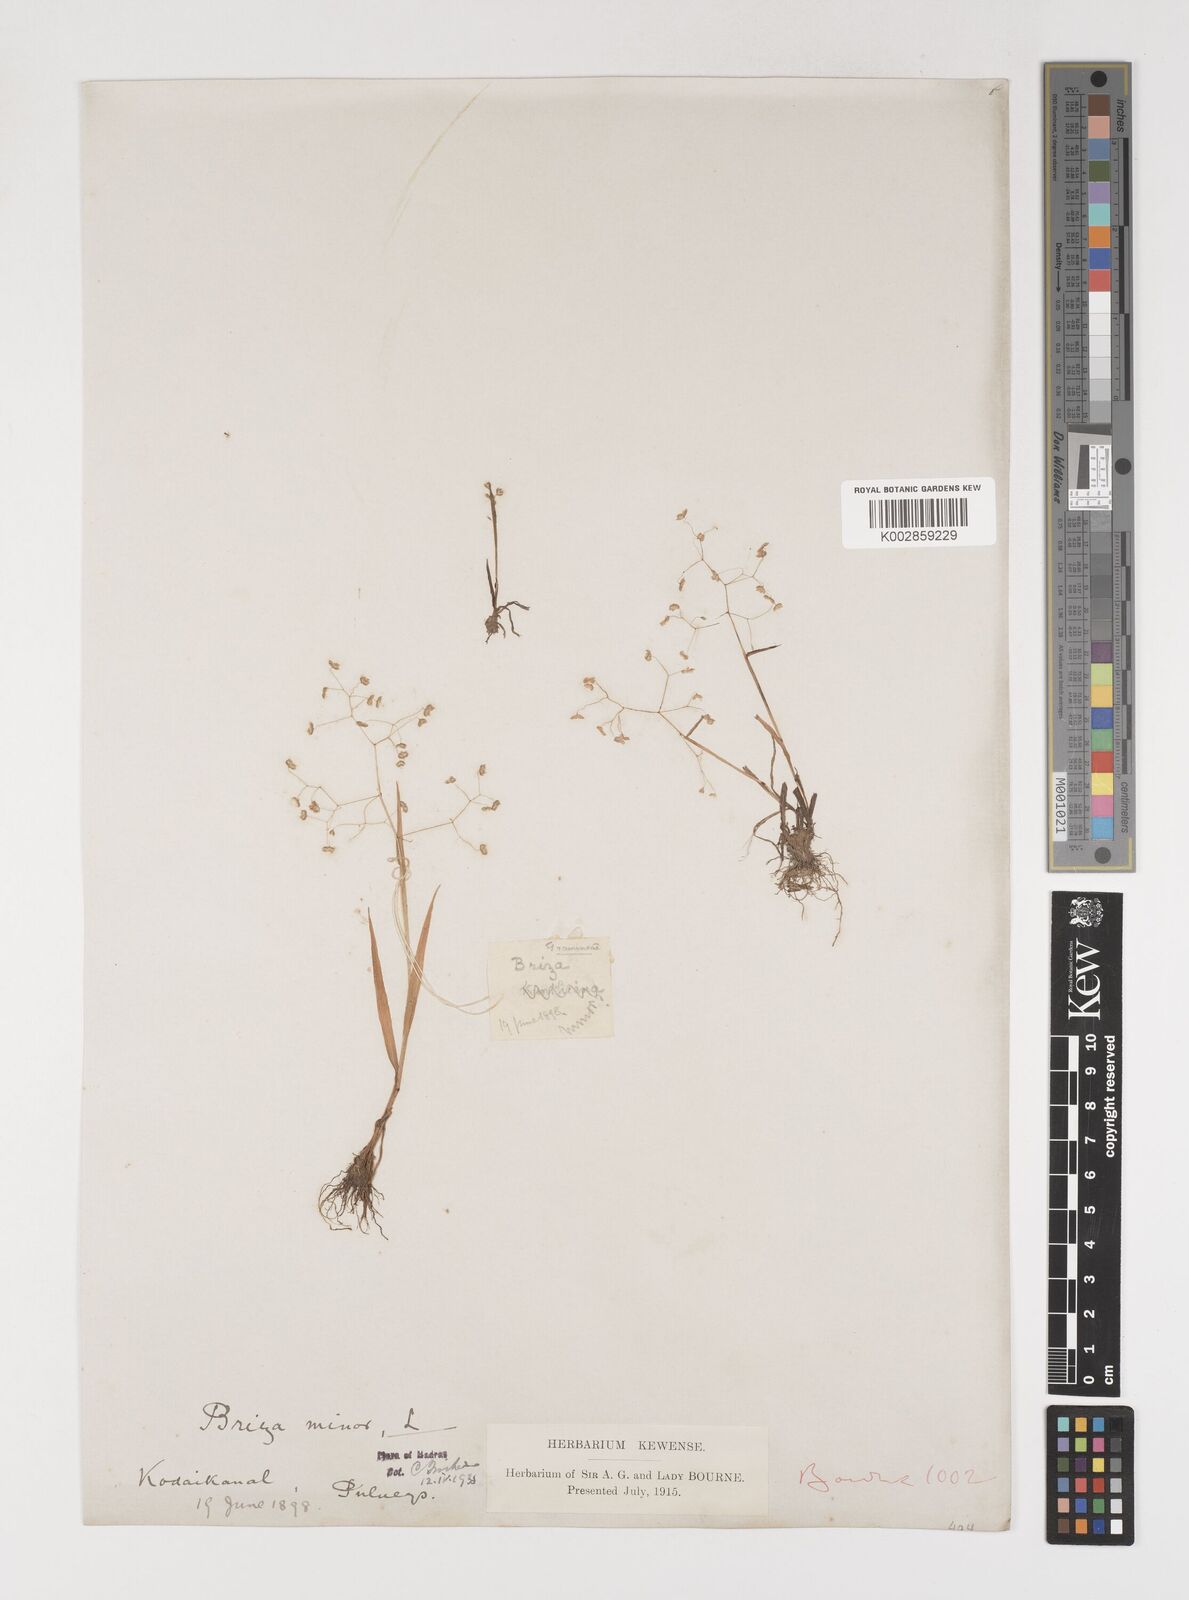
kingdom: Plantae
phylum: Tracheophyta
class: Liliopsida
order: Poales
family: Poaceae
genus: Briza
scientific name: Briza minor
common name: Lesser quaking-grass
